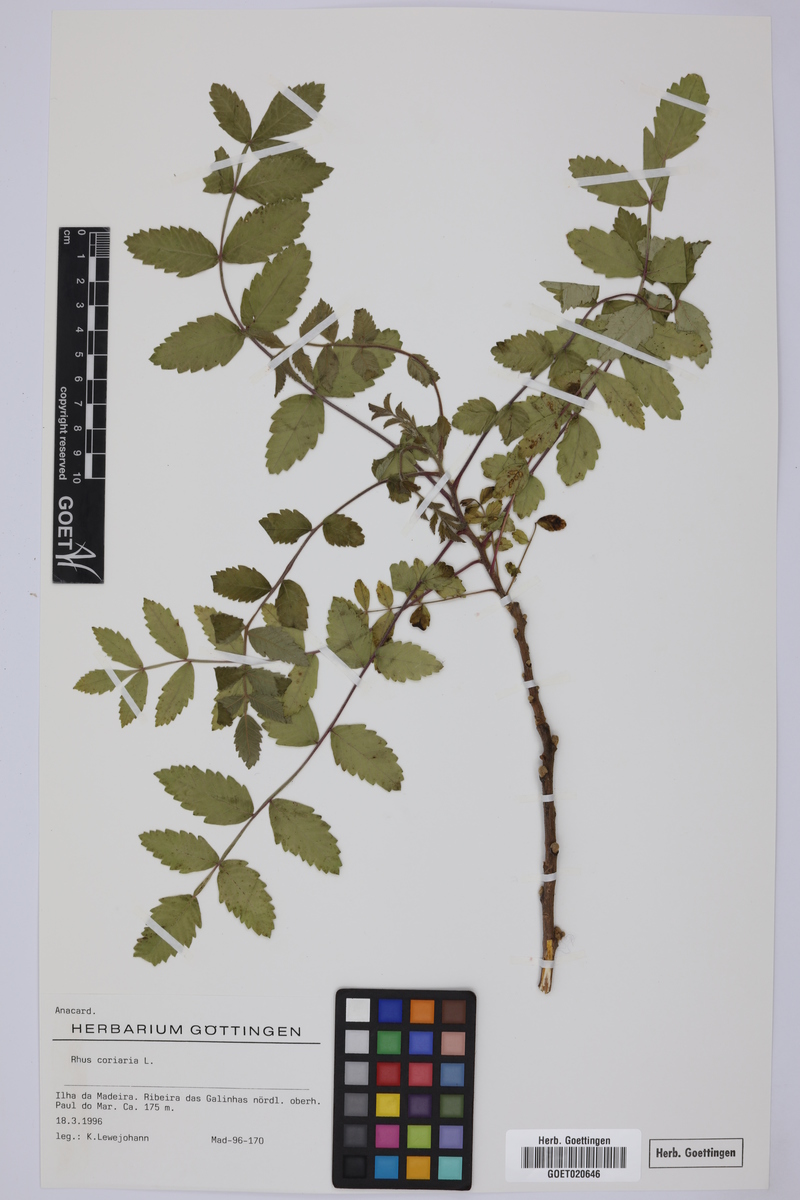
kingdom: Plantae
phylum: Tracheophyta
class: Magnoliopsida
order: Sapindales
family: Anacardiaceae
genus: Rhus
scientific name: Rhus coriaria
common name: Tanner's sumach
